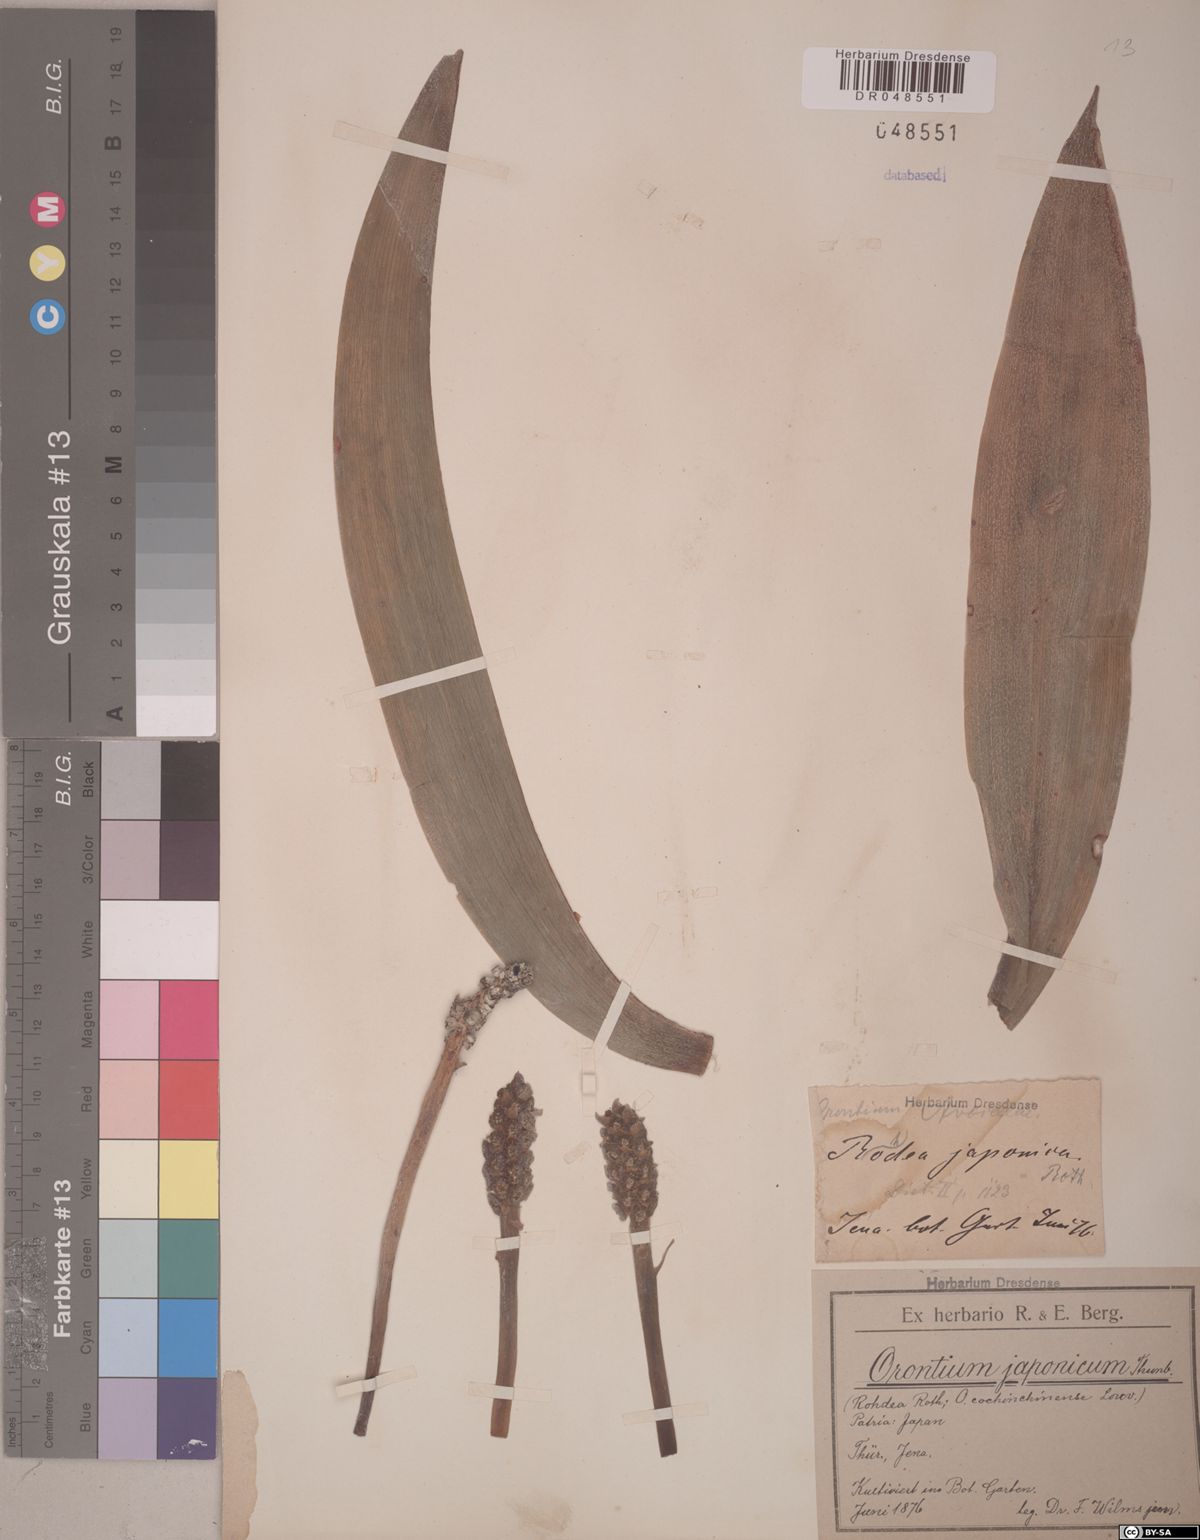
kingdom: Plantae
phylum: Tracheophyta
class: Liliopsida
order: Asparagales
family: Asparagaceae
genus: Rohdea
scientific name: Rohdea japonica
